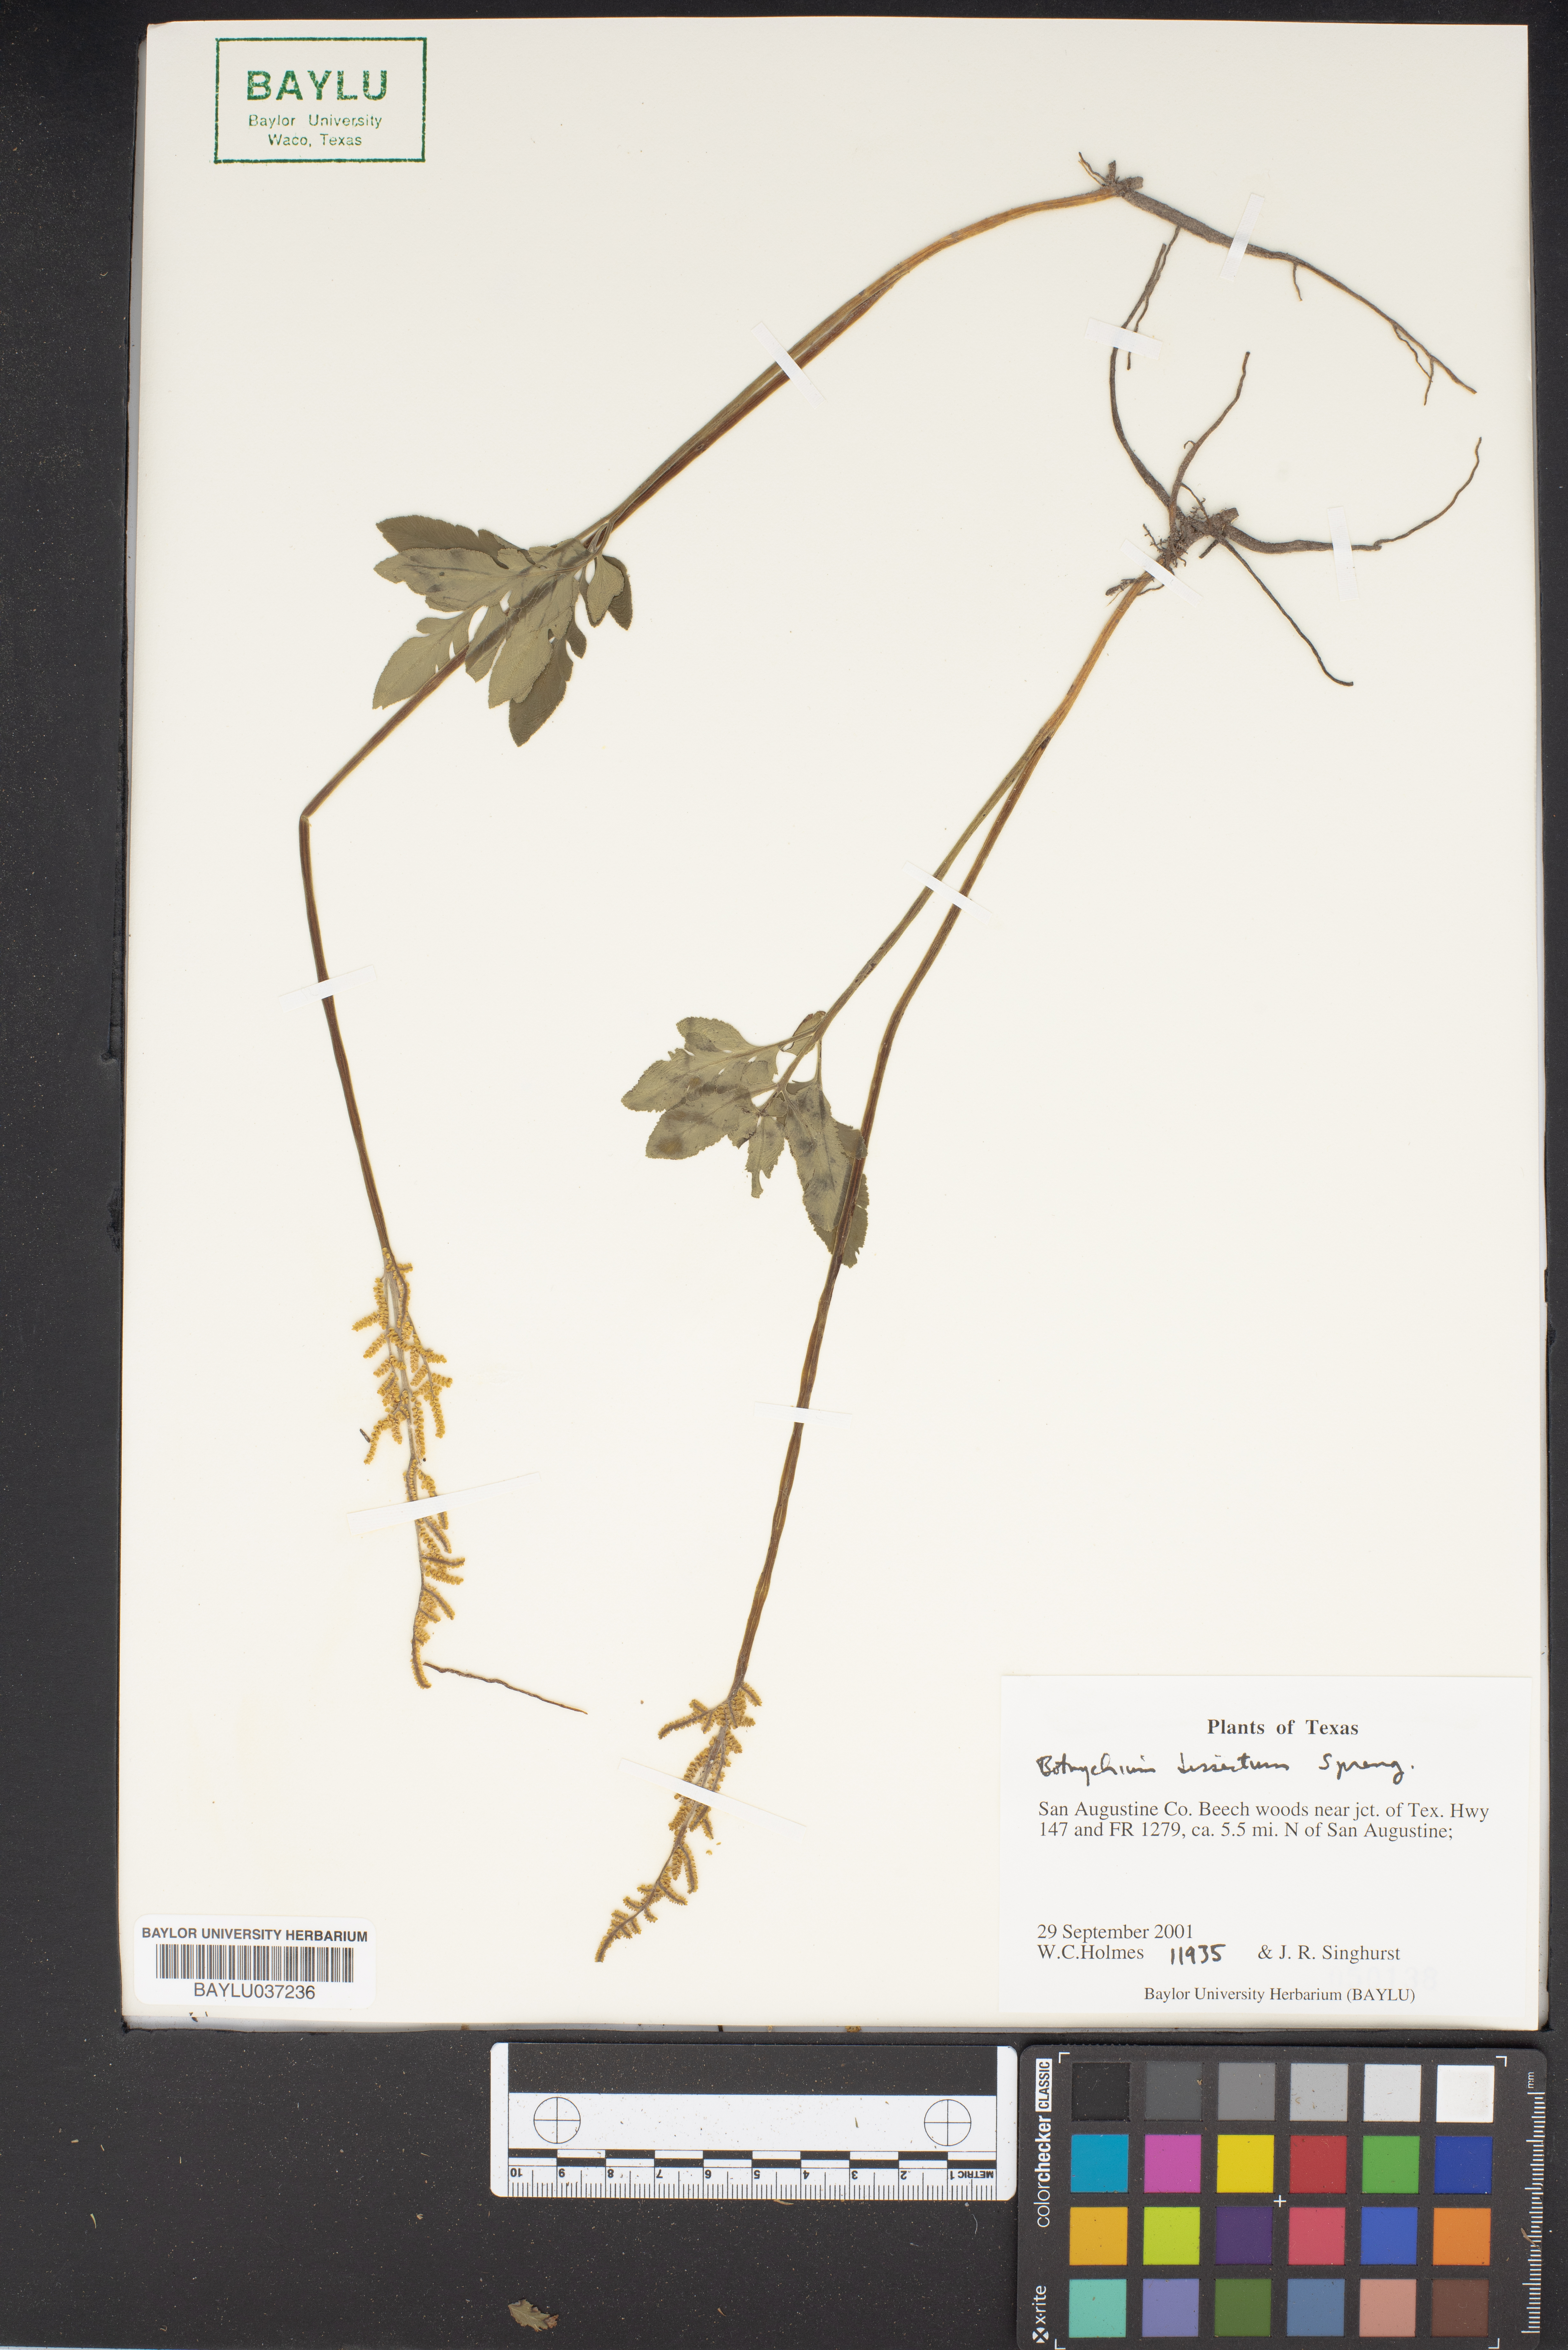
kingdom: Plantae
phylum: Tracheophyta
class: Polypodiopsida
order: Ophioglossales
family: Ophioglossaceae
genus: Sceptridium
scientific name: Sceptridium dissectum
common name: Cut-leaved grapefern
